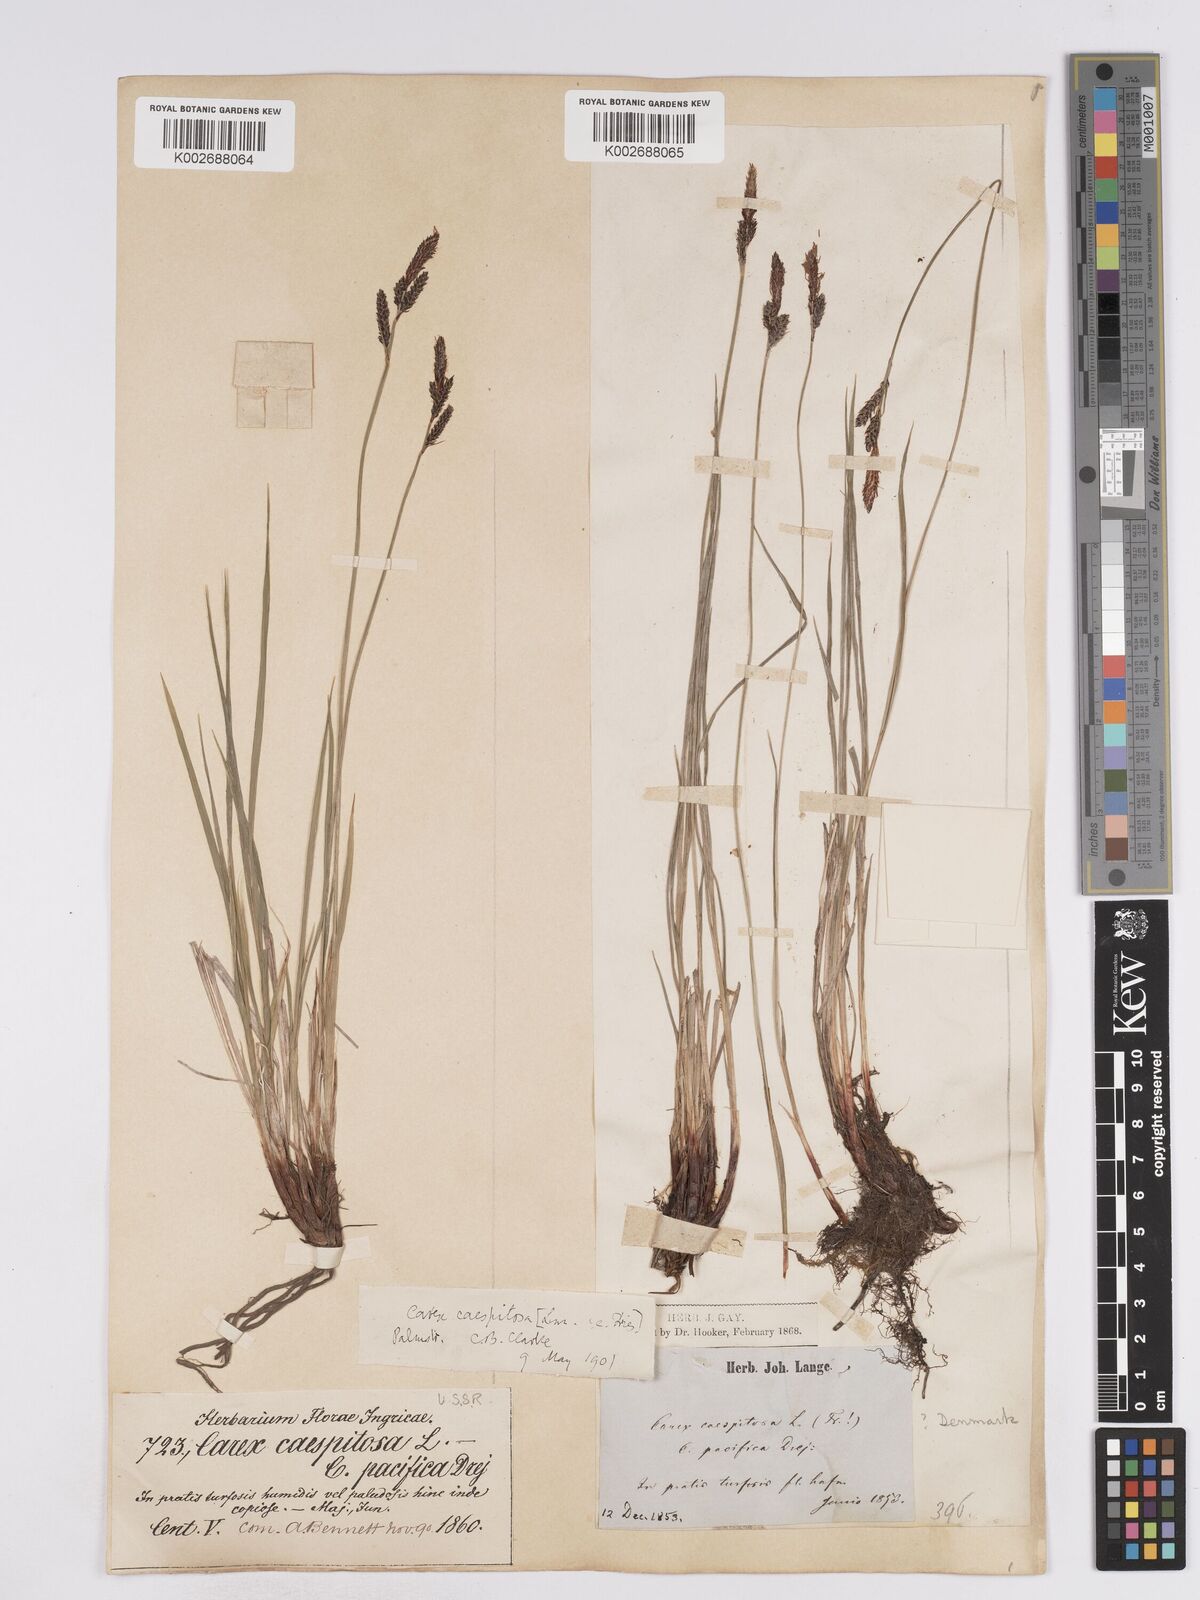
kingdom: Plantae
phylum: Tracheophyta
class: Liliopsida
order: Poales
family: Cyperaceae
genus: Carex
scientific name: Carex cespitosa
